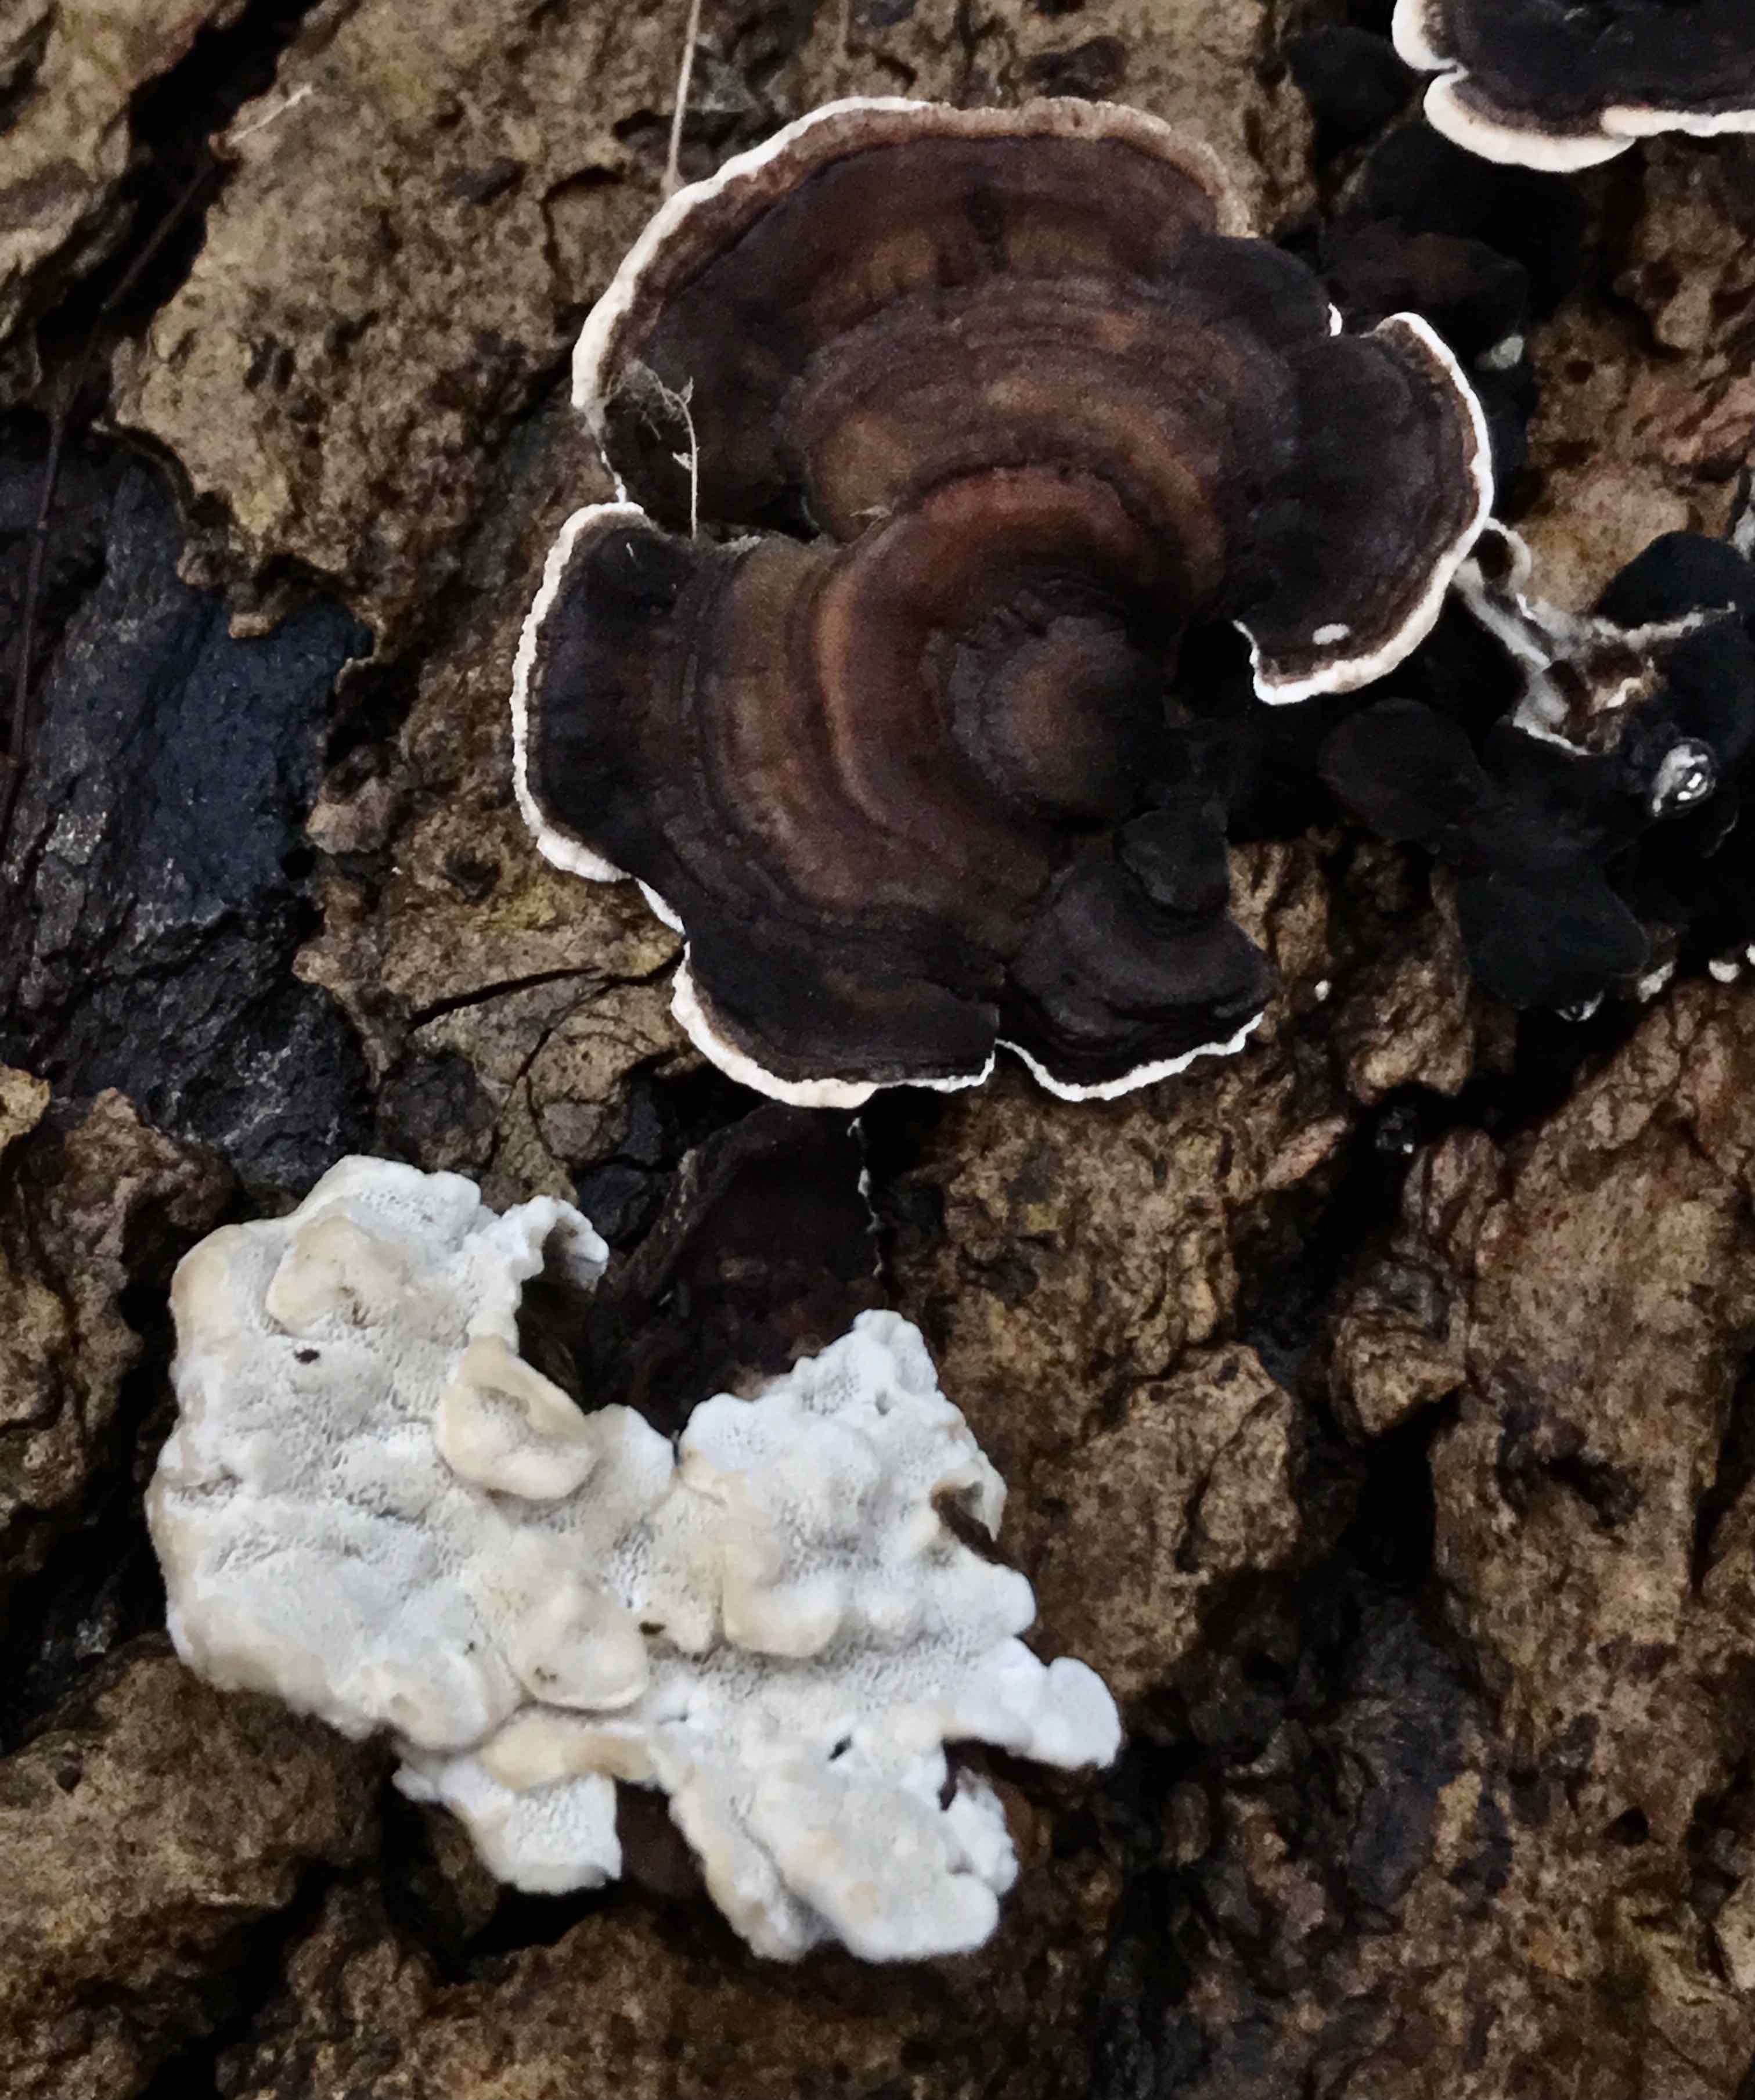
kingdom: Fungi
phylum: Basidiomycota
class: Agaricomycetes
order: Polyporales
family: Polyporaceae
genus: Trametes
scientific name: Trametes versicolor
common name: broget læderporesvamp
